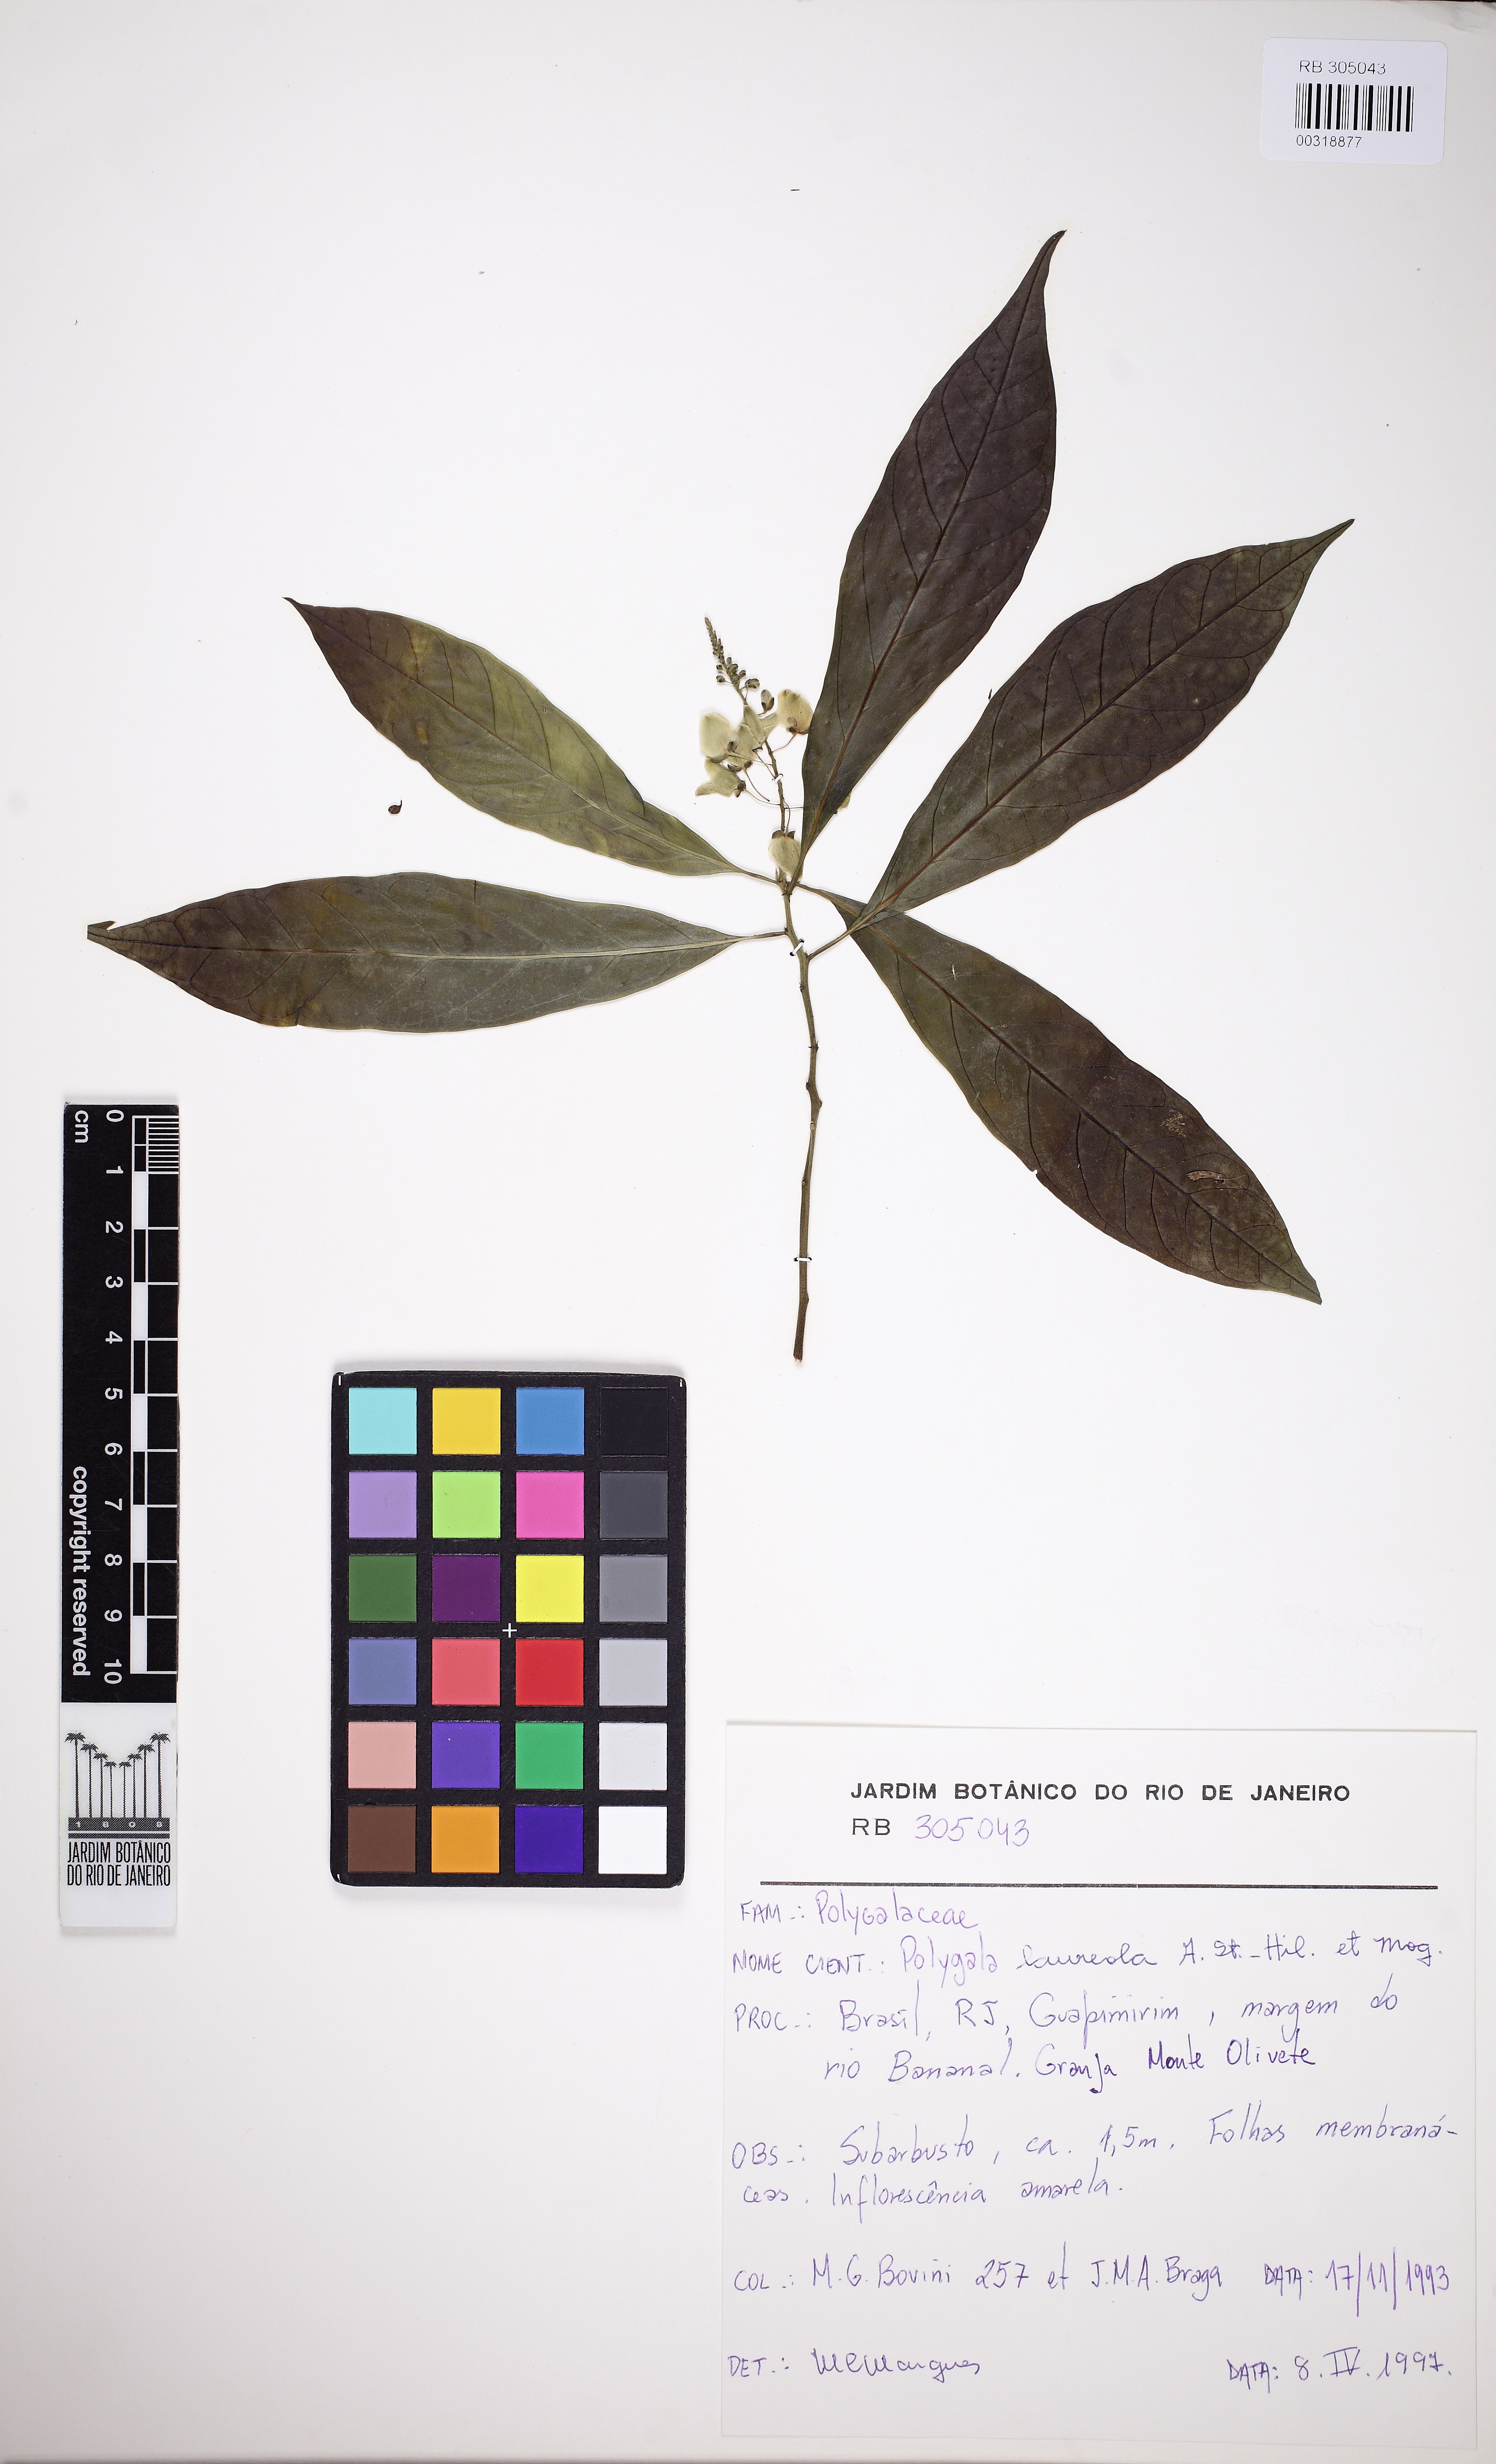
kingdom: Plantae
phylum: Tracheophyta
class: Magnoliopsida
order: Fabales
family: Polygalaceae
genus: Caamembeca
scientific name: Caamembeca salicifolia
